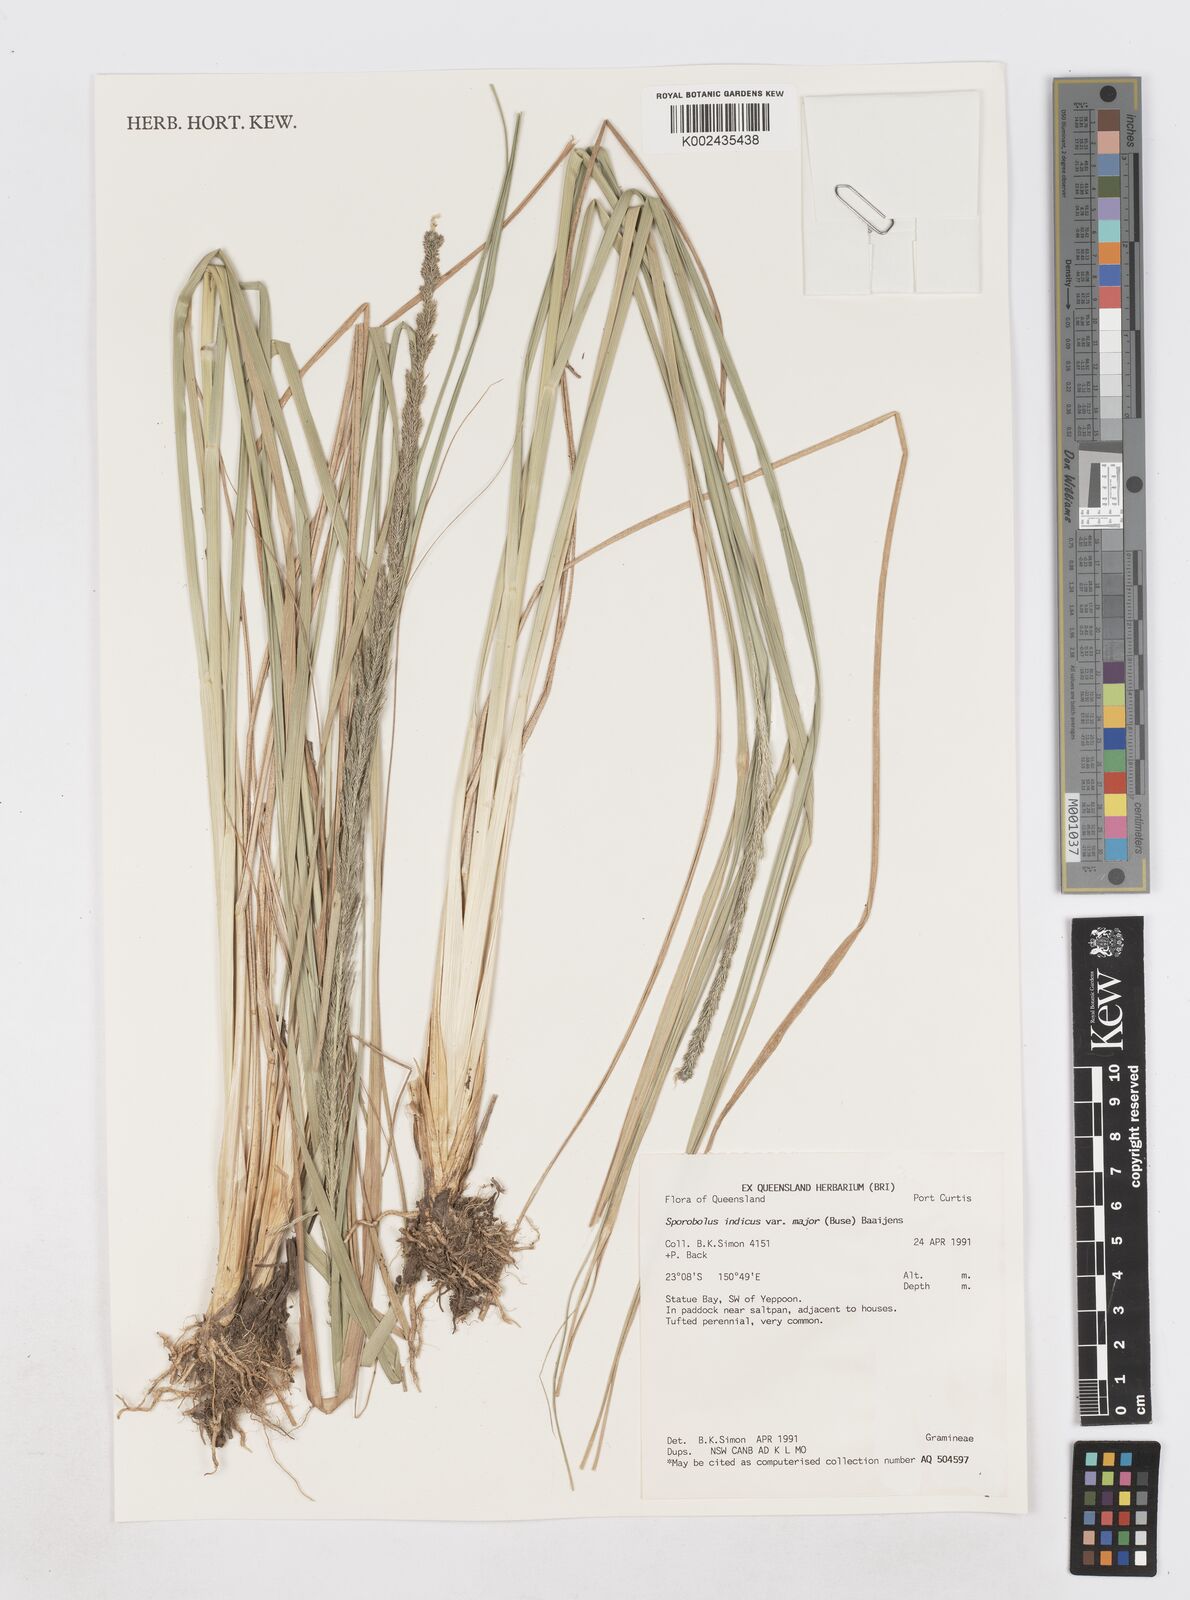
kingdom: Plantae
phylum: Tracheophyta
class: Liliopsida
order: Poales
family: Poaceae
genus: Sporobolus
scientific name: Sporobolus fertilis
